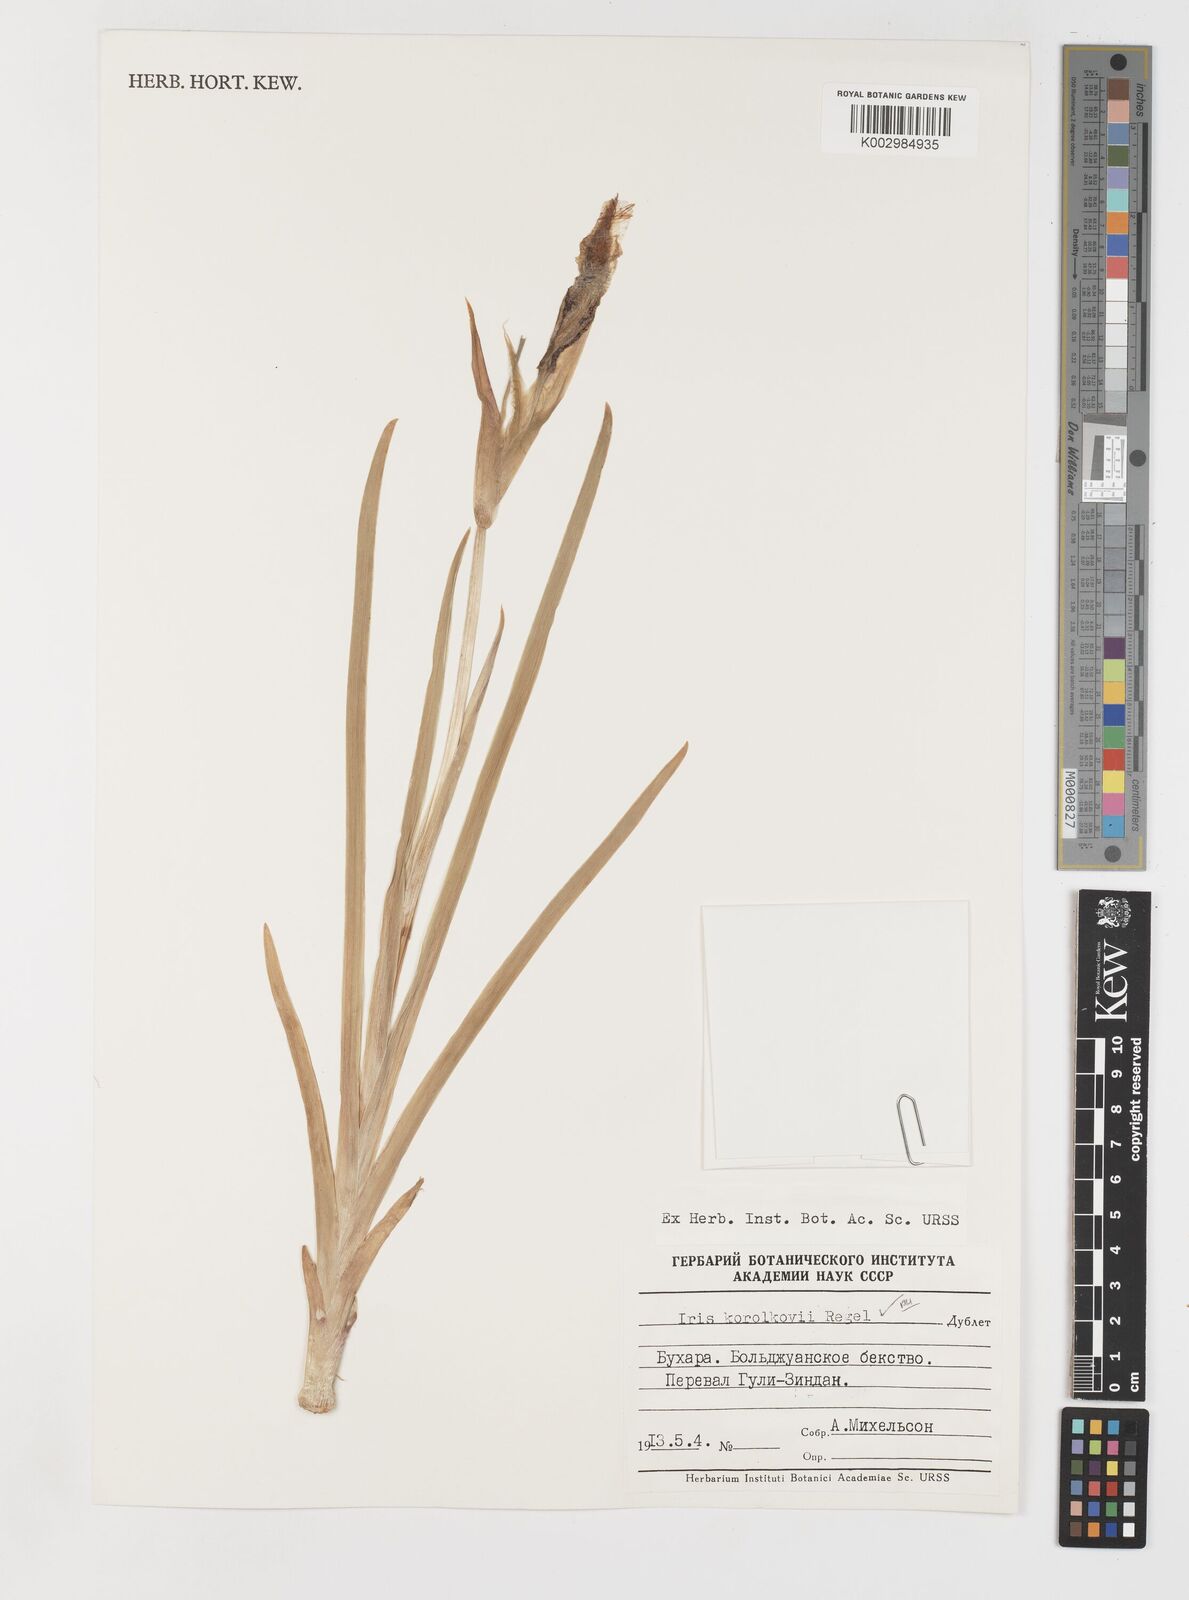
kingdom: Plantae
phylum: Tracheophyta
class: Liliopsida
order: Asparagales
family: Iridaceae
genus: Iris
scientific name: Iris korolkowii
